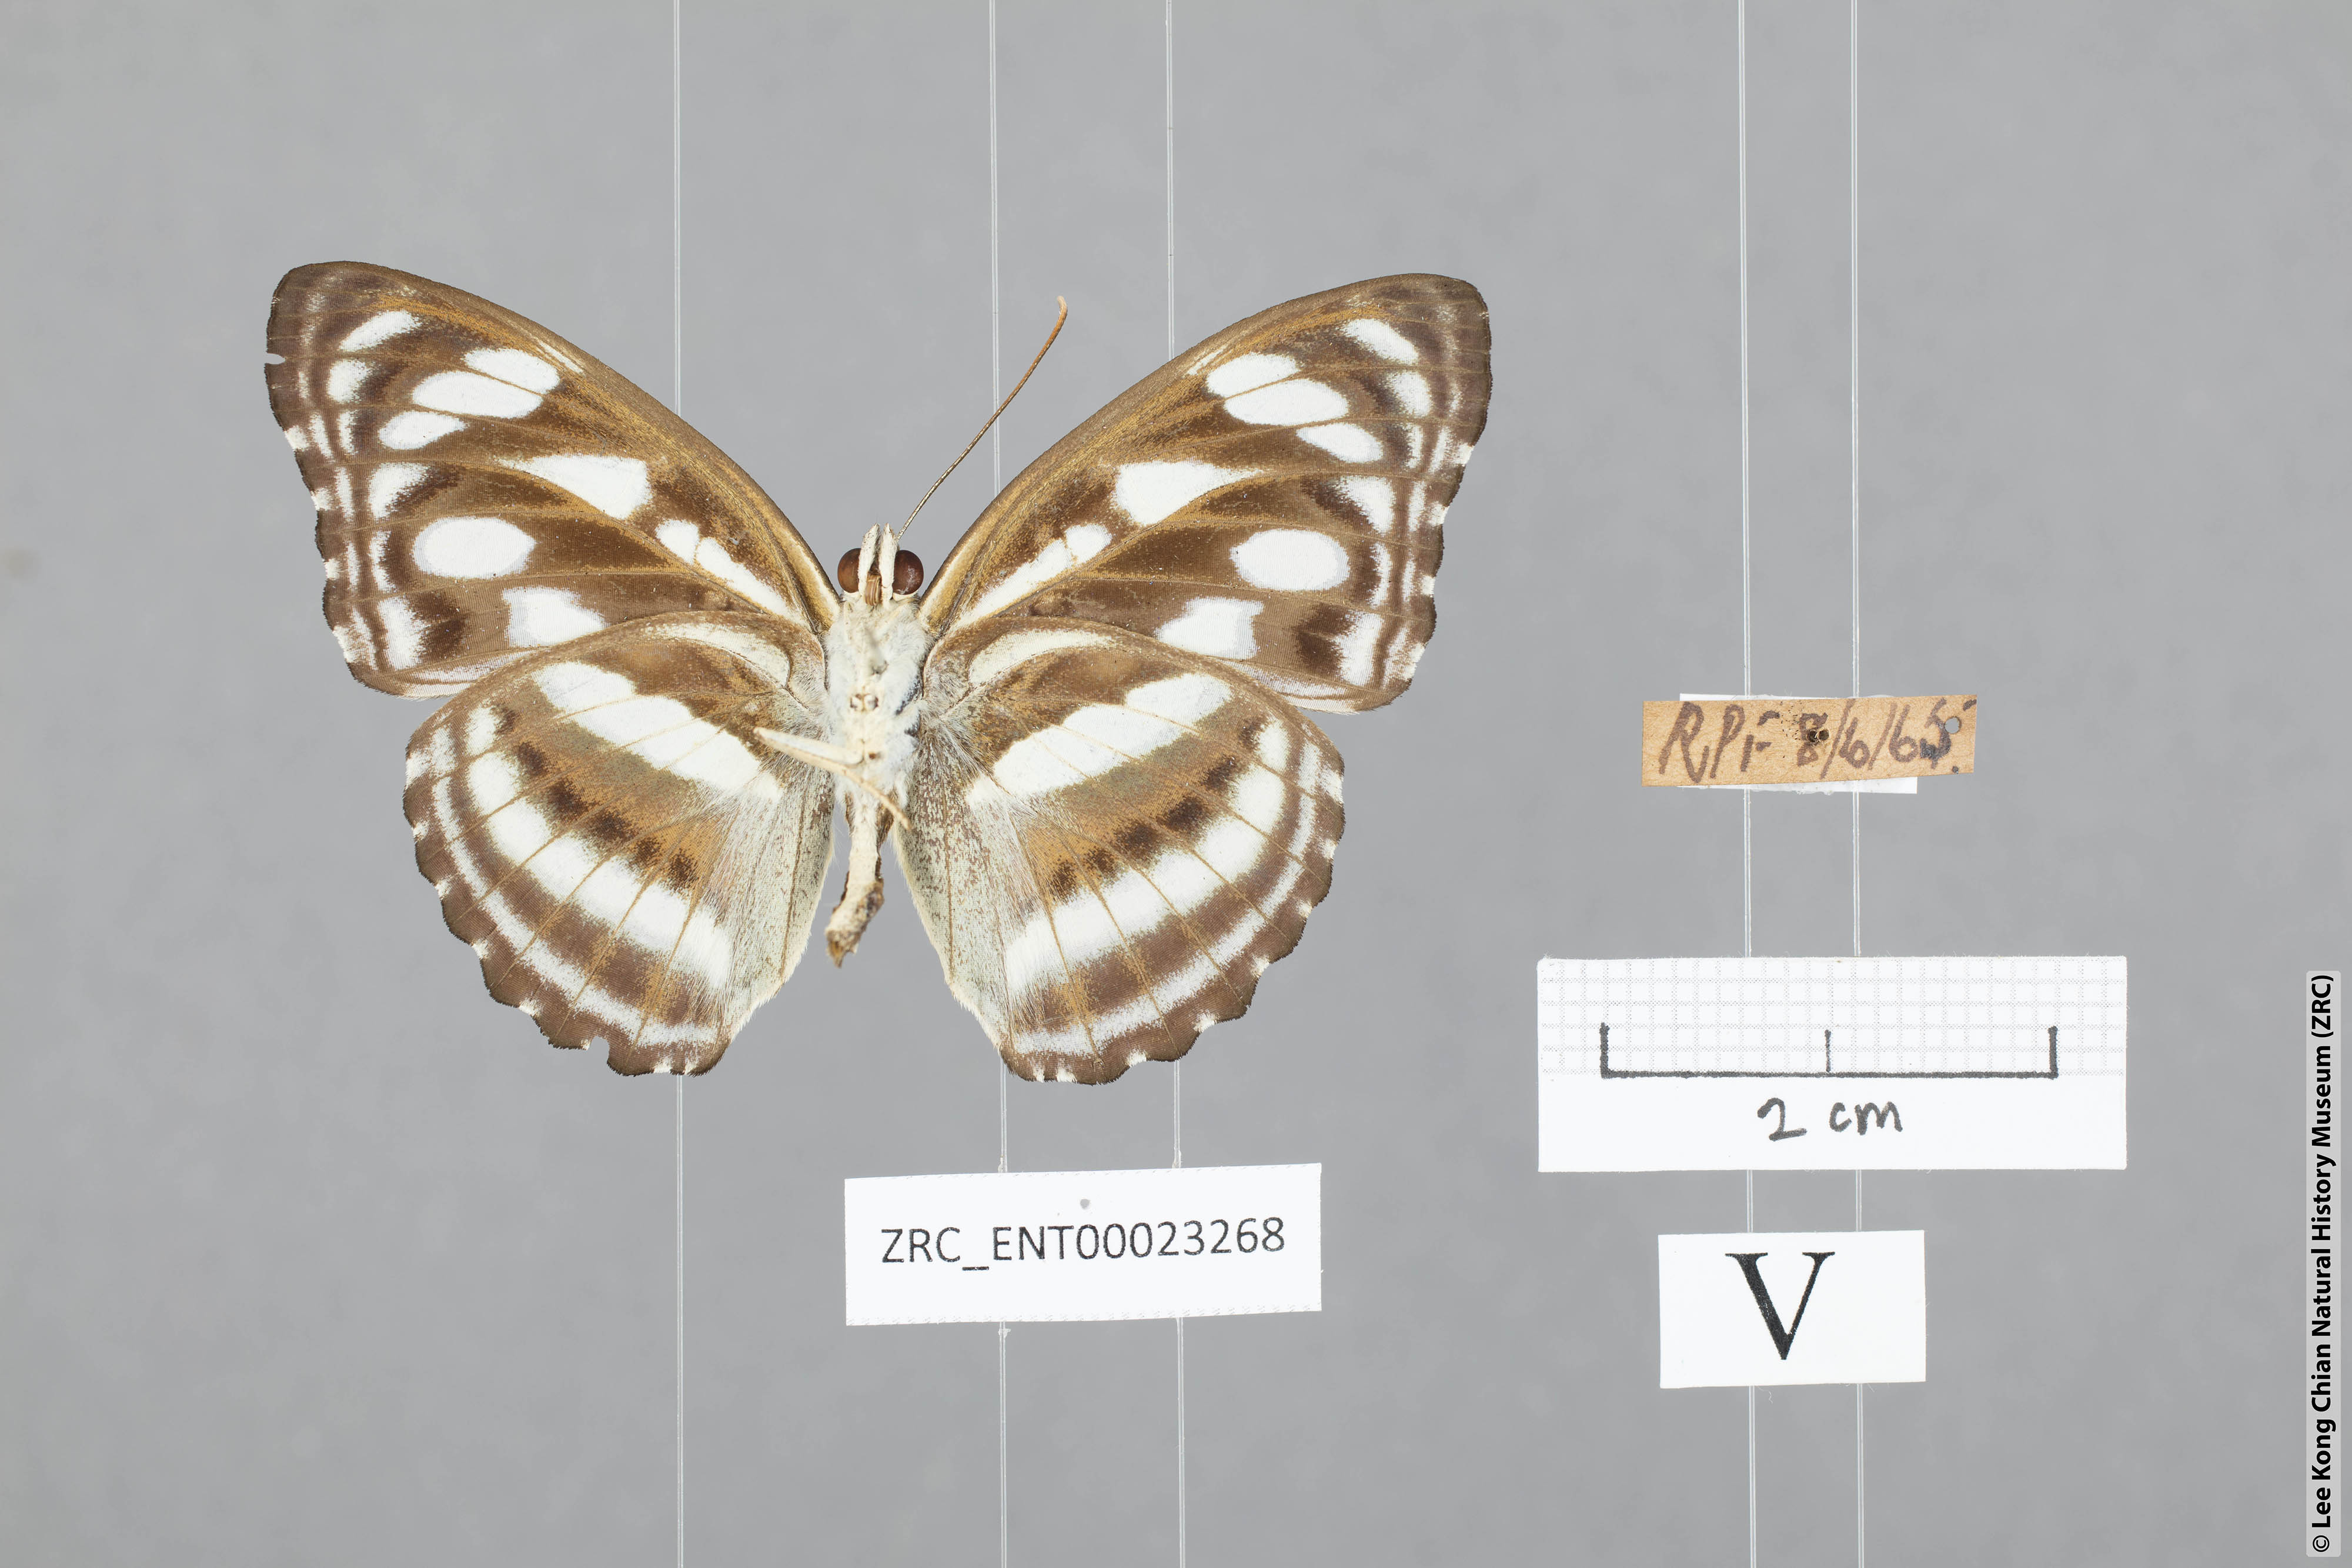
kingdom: Animalia
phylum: Arthropoda
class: Insecta
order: Lepidoptera
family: Nymphalidae
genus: Parathyma
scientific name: Parathyma reta
